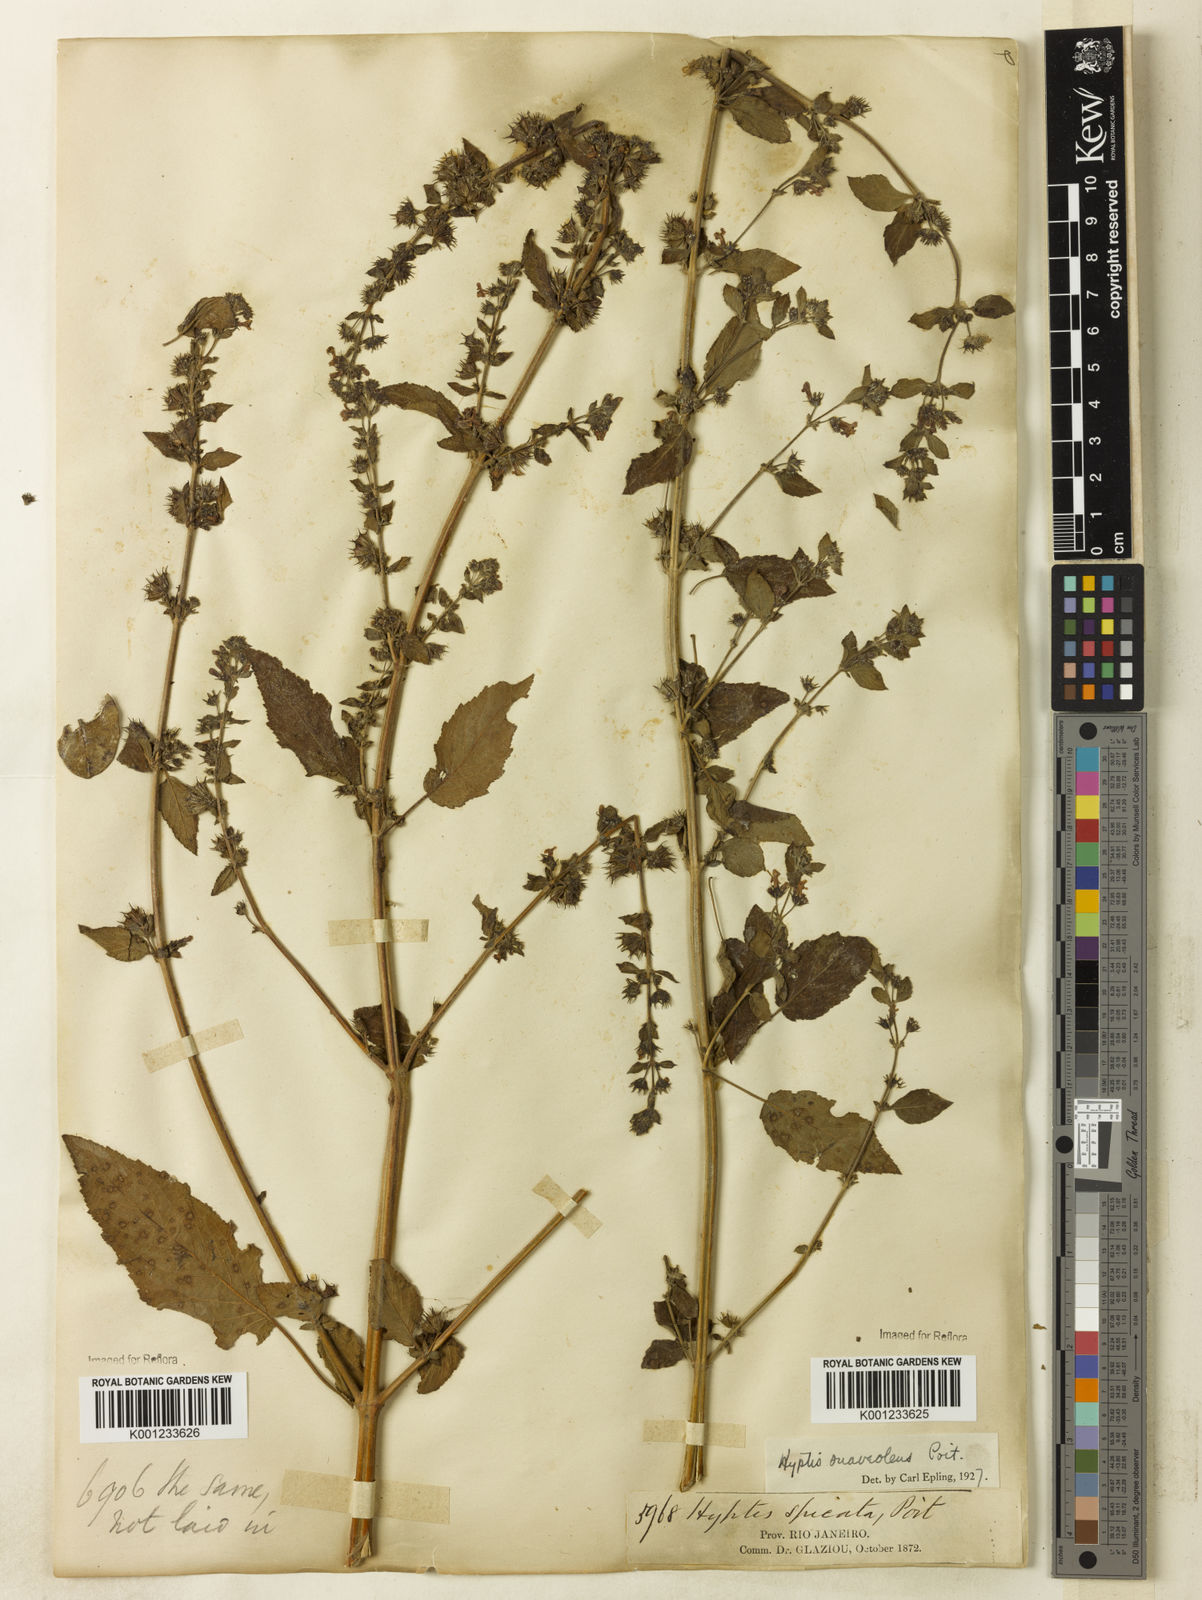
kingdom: Plantae
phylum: Tracheophyta
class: Magnoliopsida
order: Lamiales
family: Lamiaceae
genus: Mesosphaerum
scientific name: Mesosphaerum suaveolens
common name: Pignut
